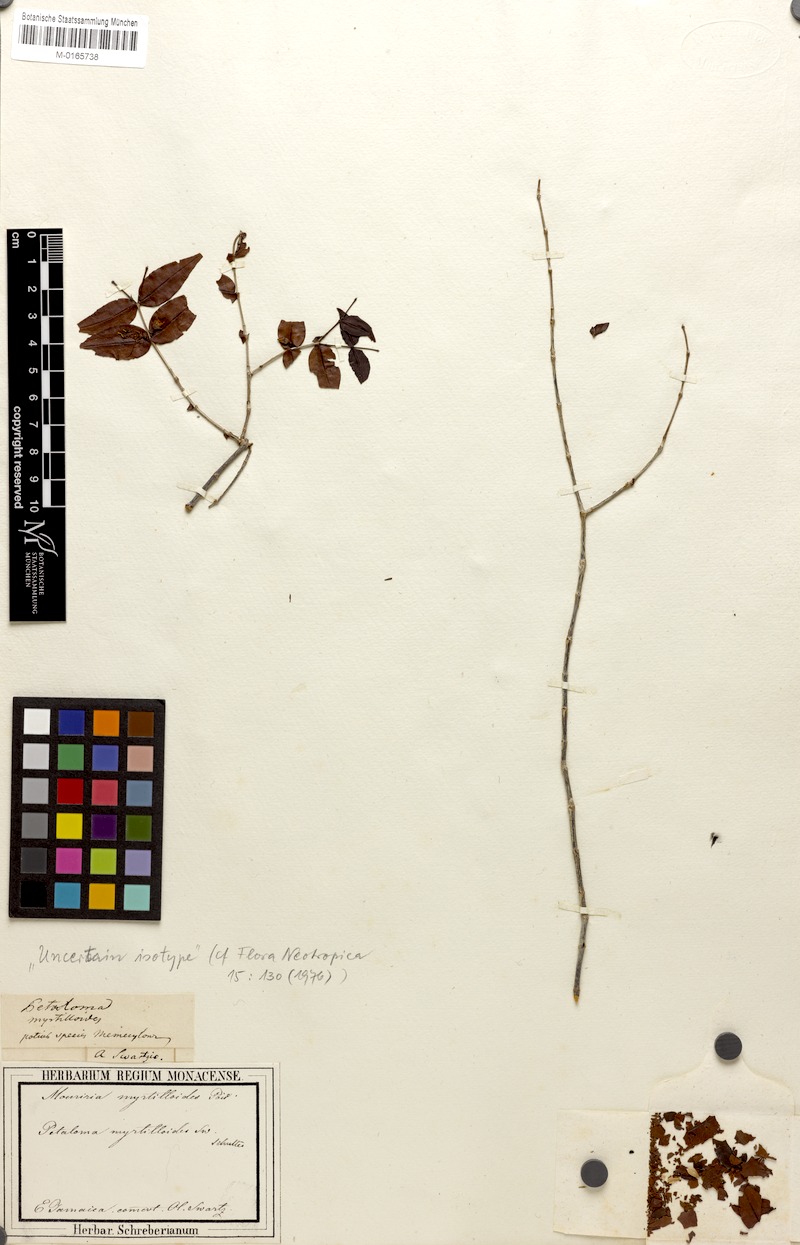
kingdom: Plantae
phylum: Tracheophyta
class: Magnoliopsida
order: Myrtales
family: Melastomataceae
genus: Mouriri
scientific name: Mouriri myrtilloides
